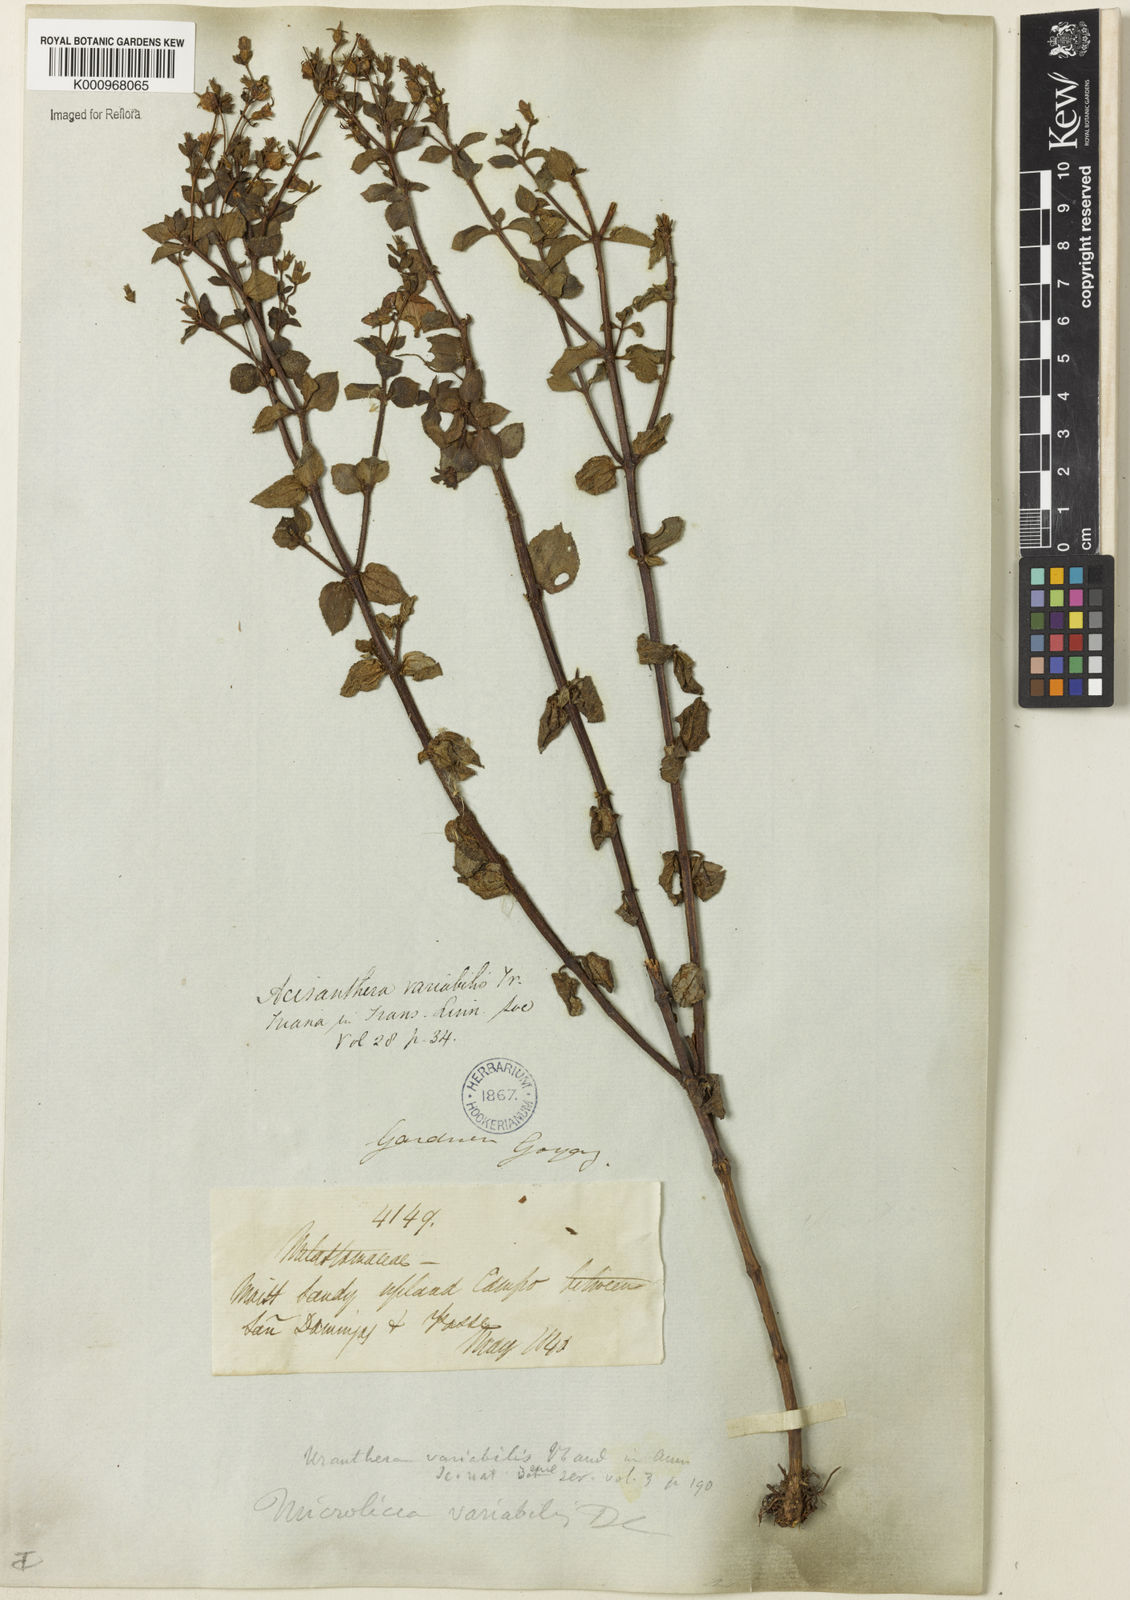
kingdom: Plantae
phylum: Tracheophyta
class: Magnoliopsida
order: Fabales
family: Fabaceae
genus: Phyllodium
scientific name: Phyllodium pulchellum
